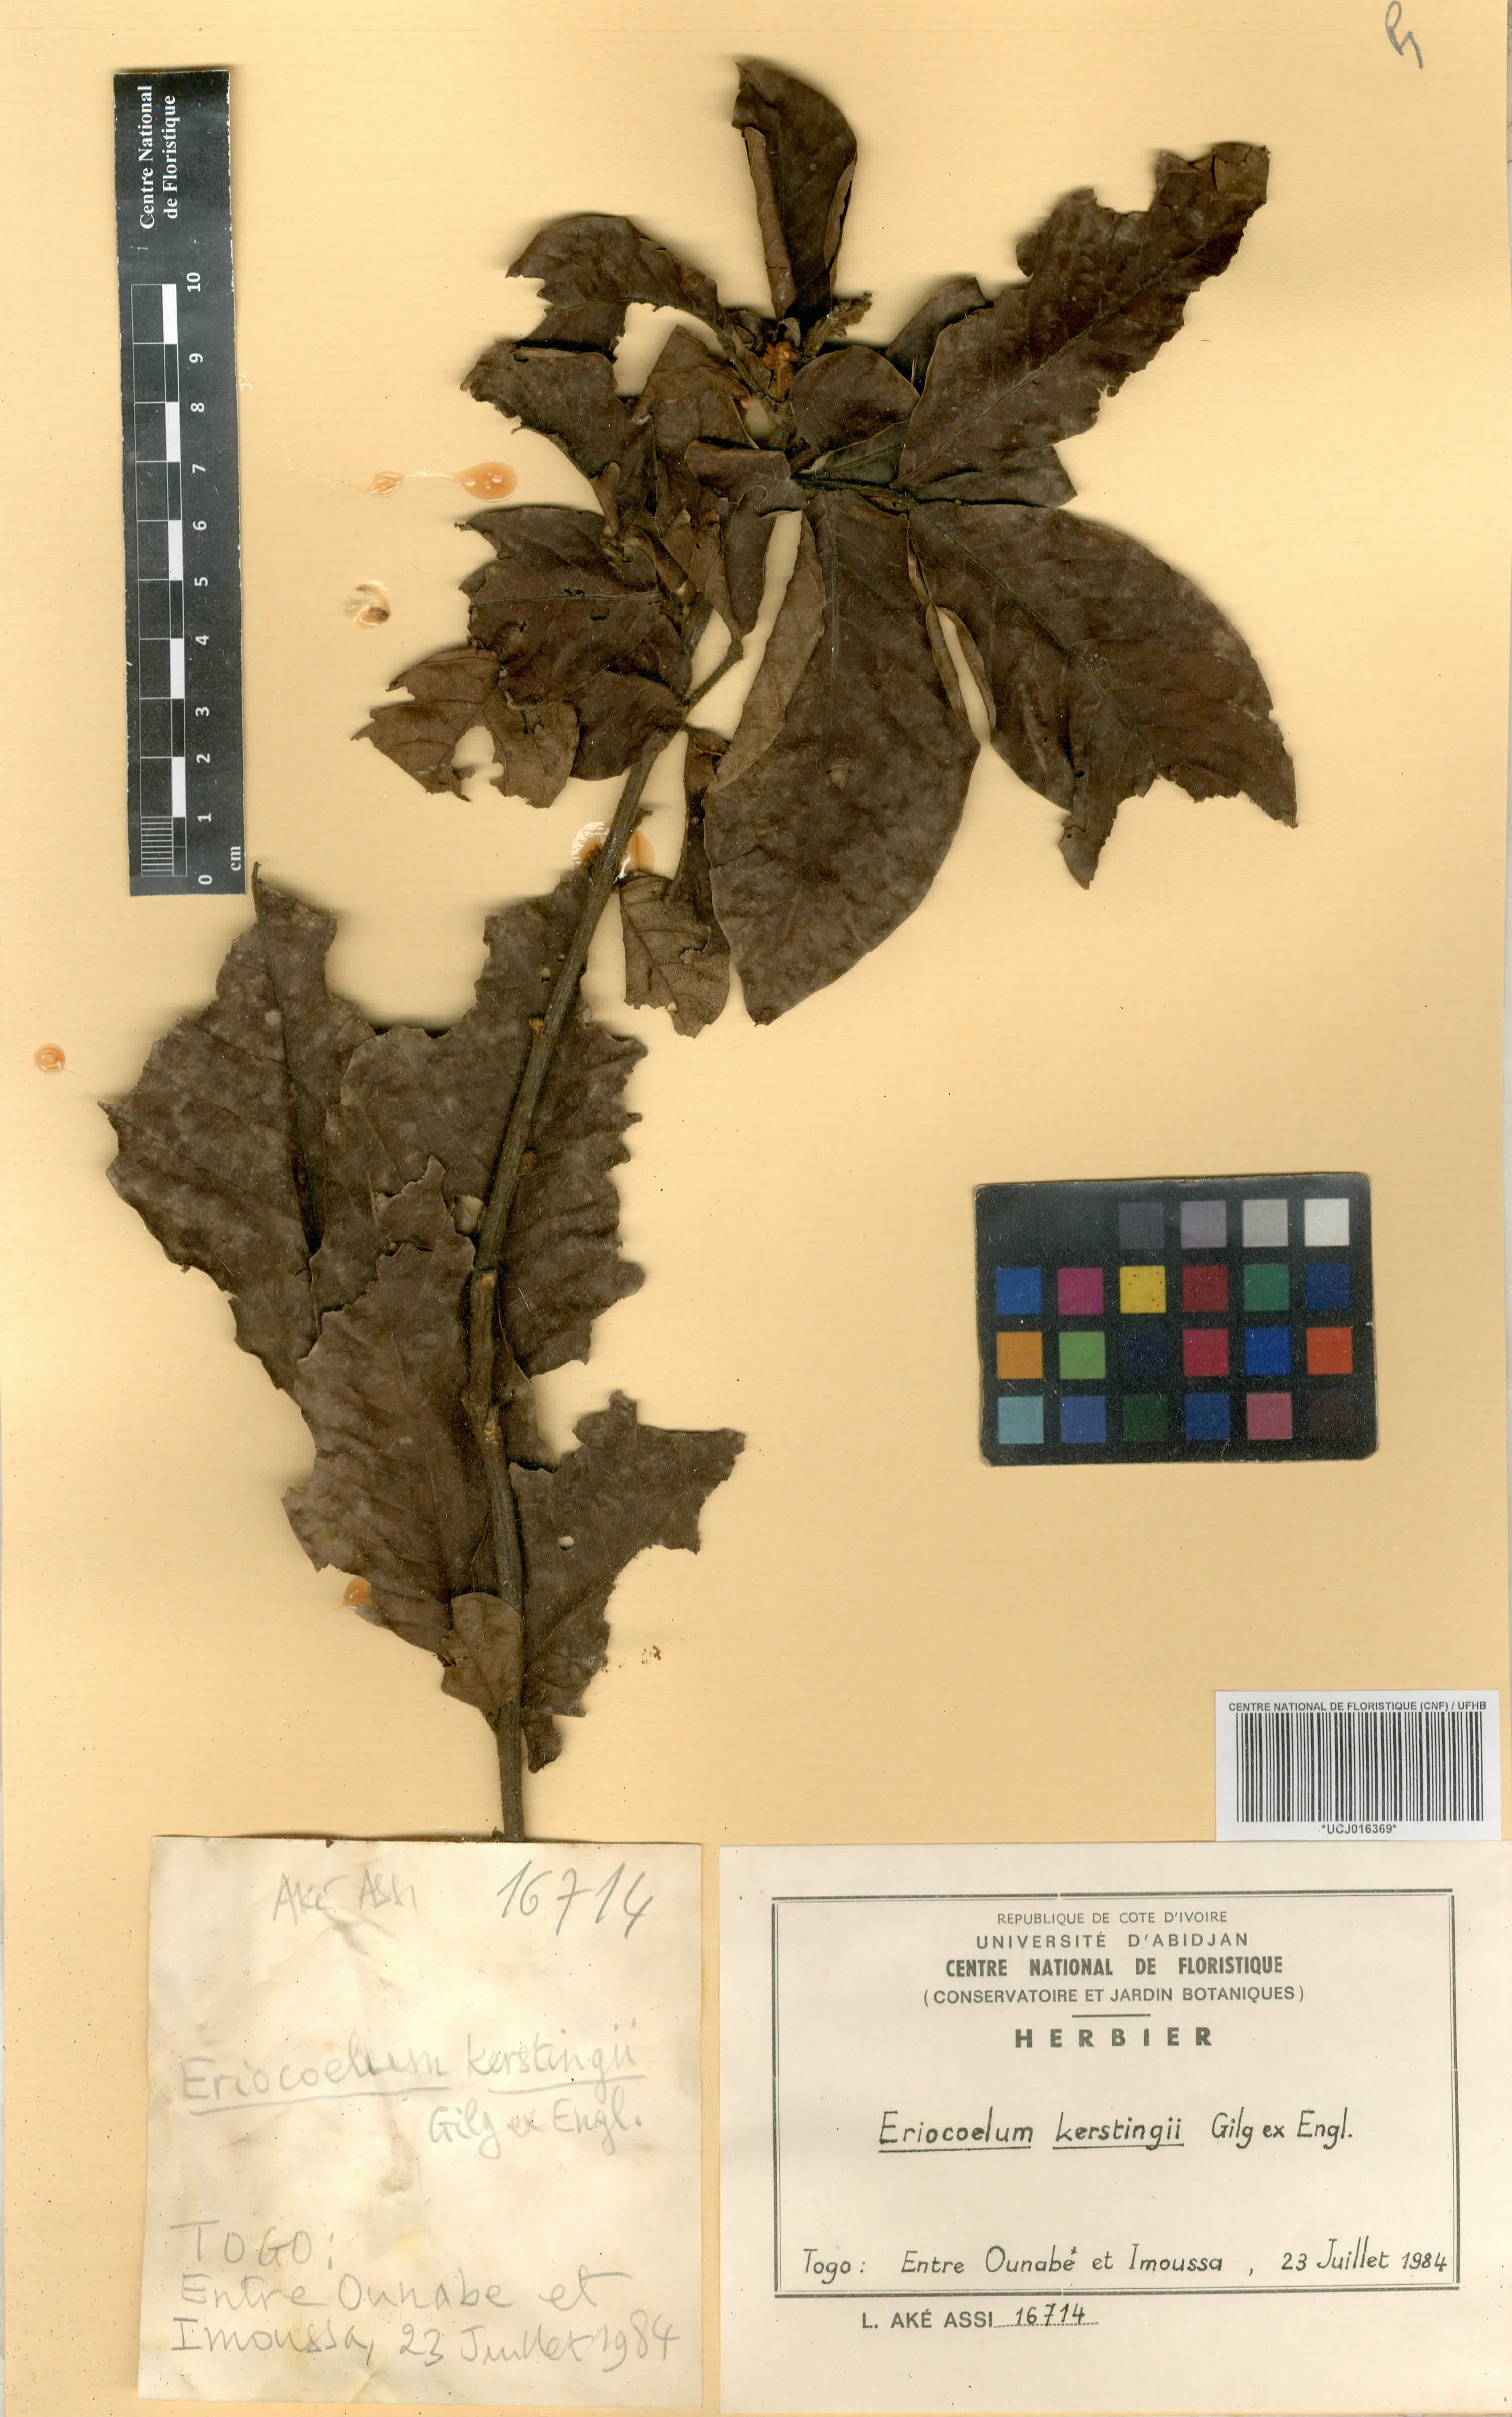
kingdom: Plantae
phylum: Tracheophyta
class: Magnoliopsida
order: Sapindales
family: Sapindaceae
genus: Eriocoelum
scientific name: Eriocoelum kerstingii
